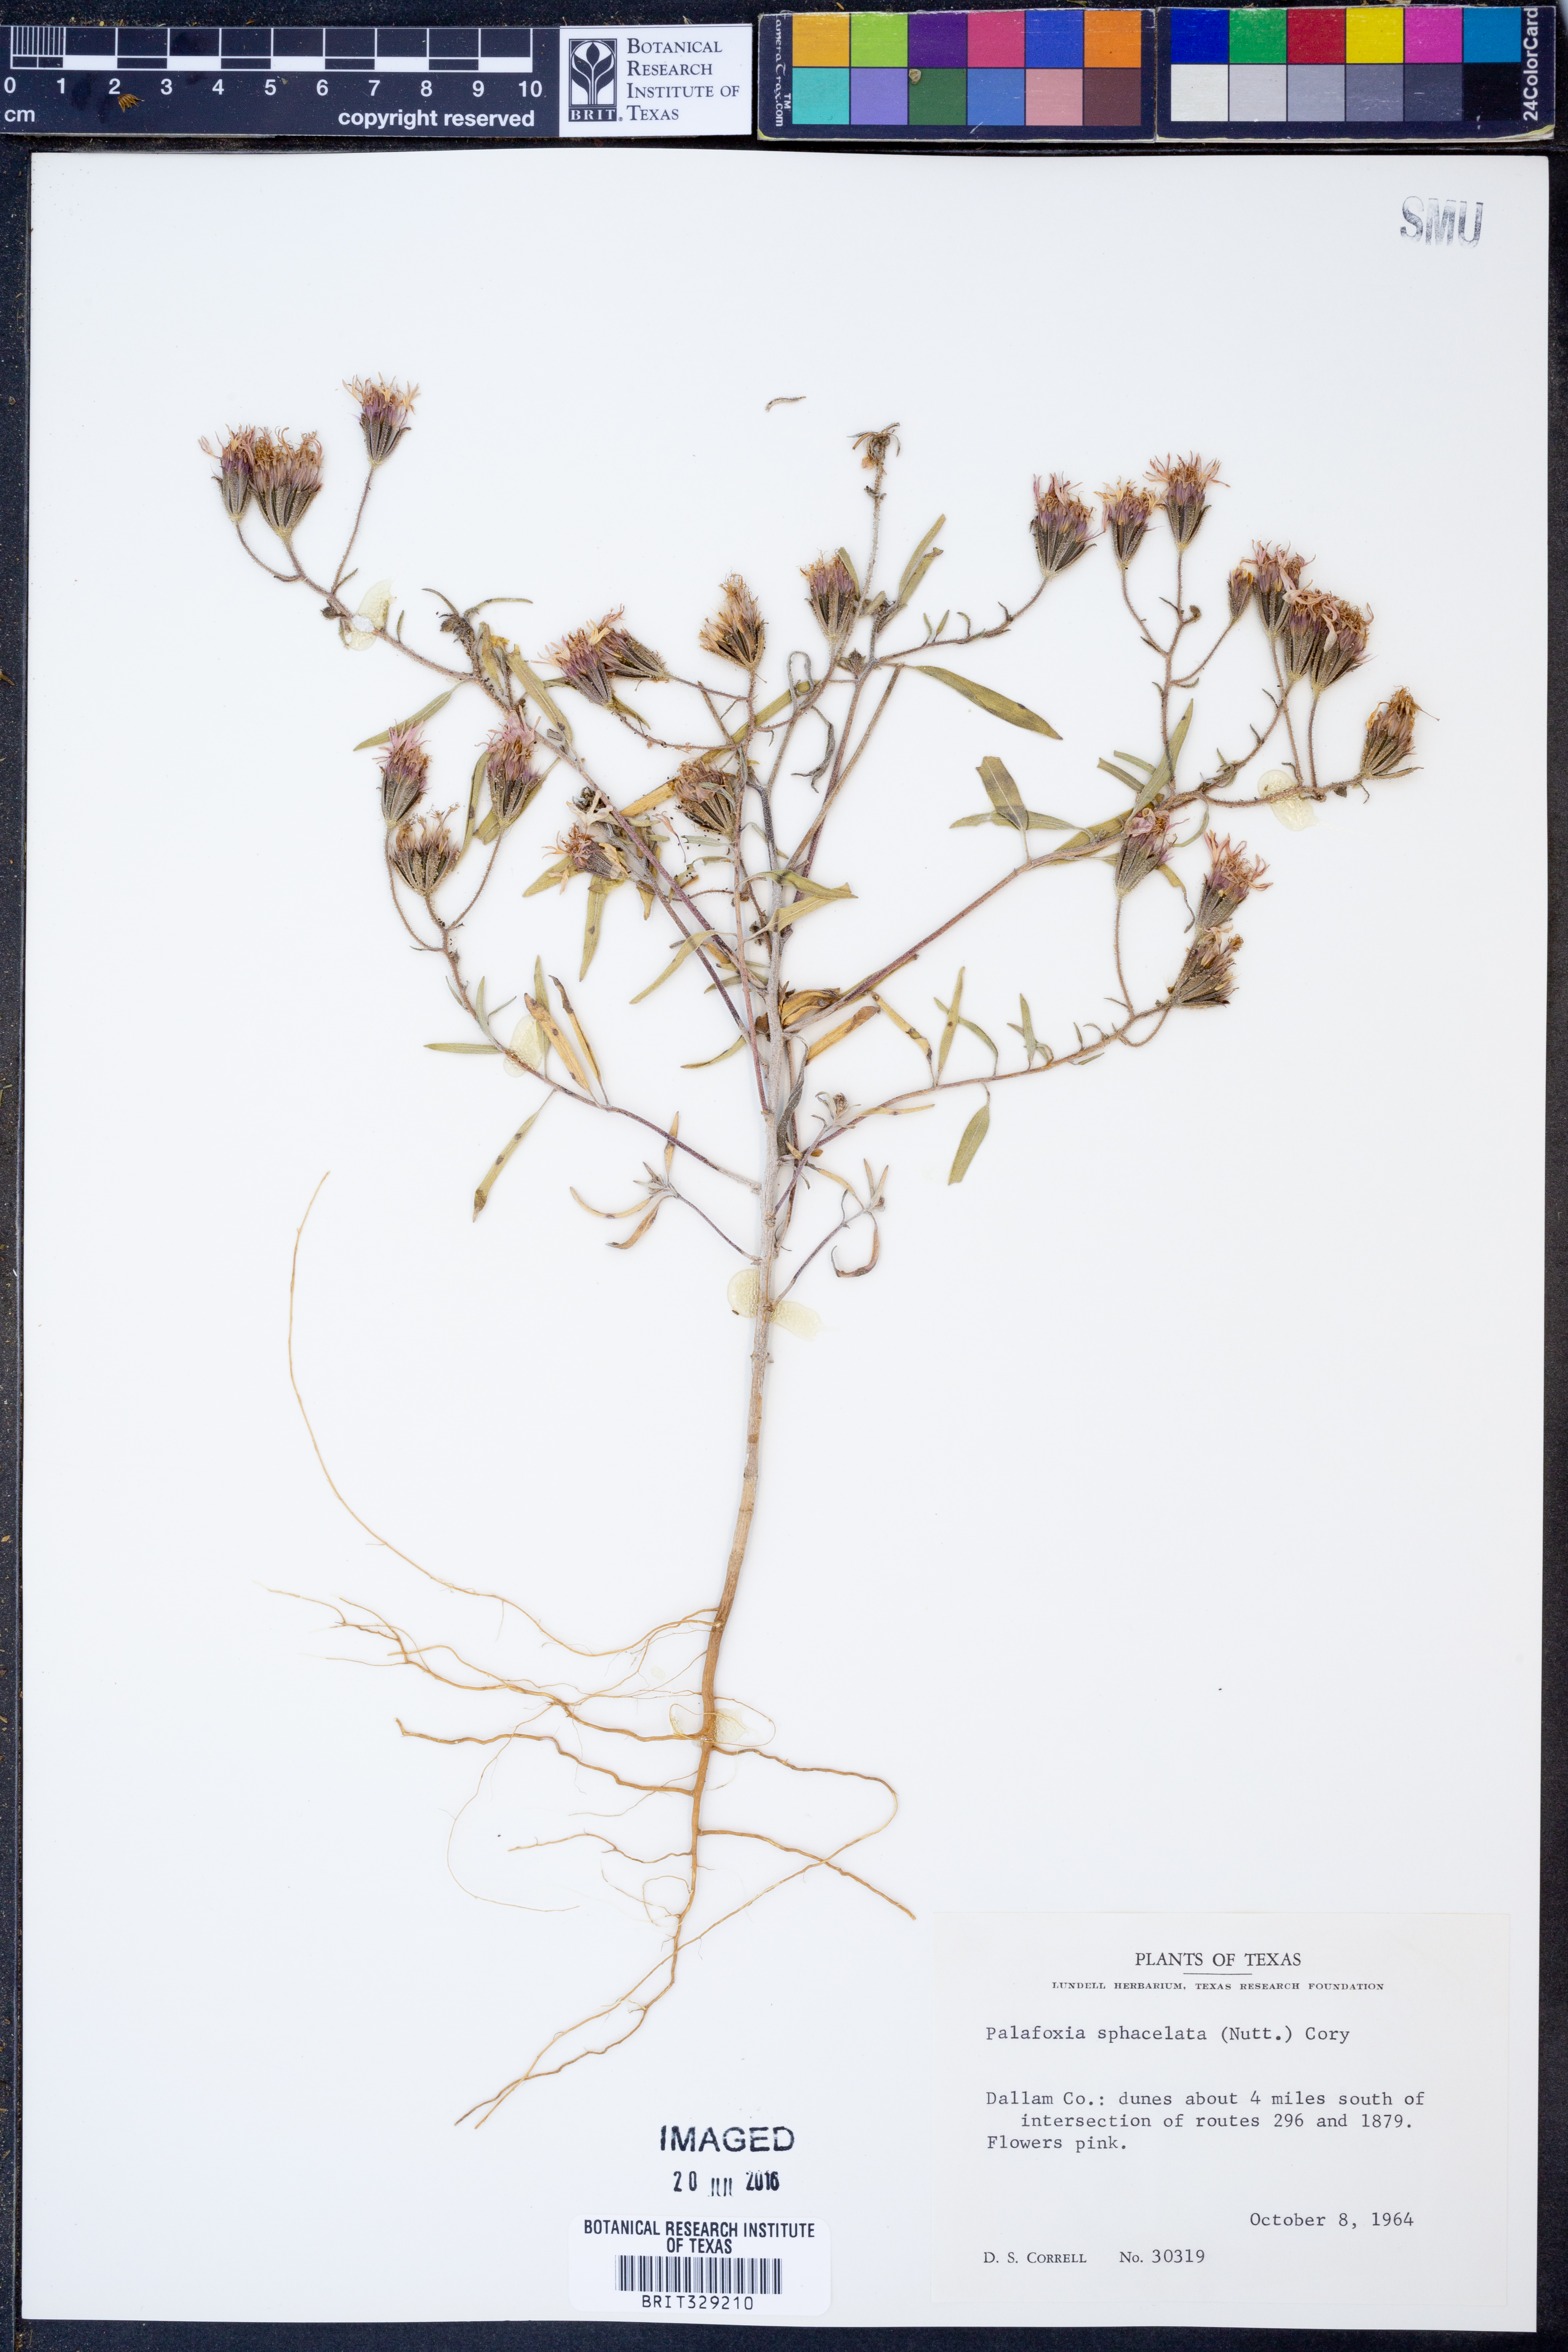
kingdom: Plantae
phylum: Tracheophyta
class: Magnoliopsida
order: Asterales
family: Asteraceae
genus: Palafoxia
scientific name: Palafoxia sphacelata
